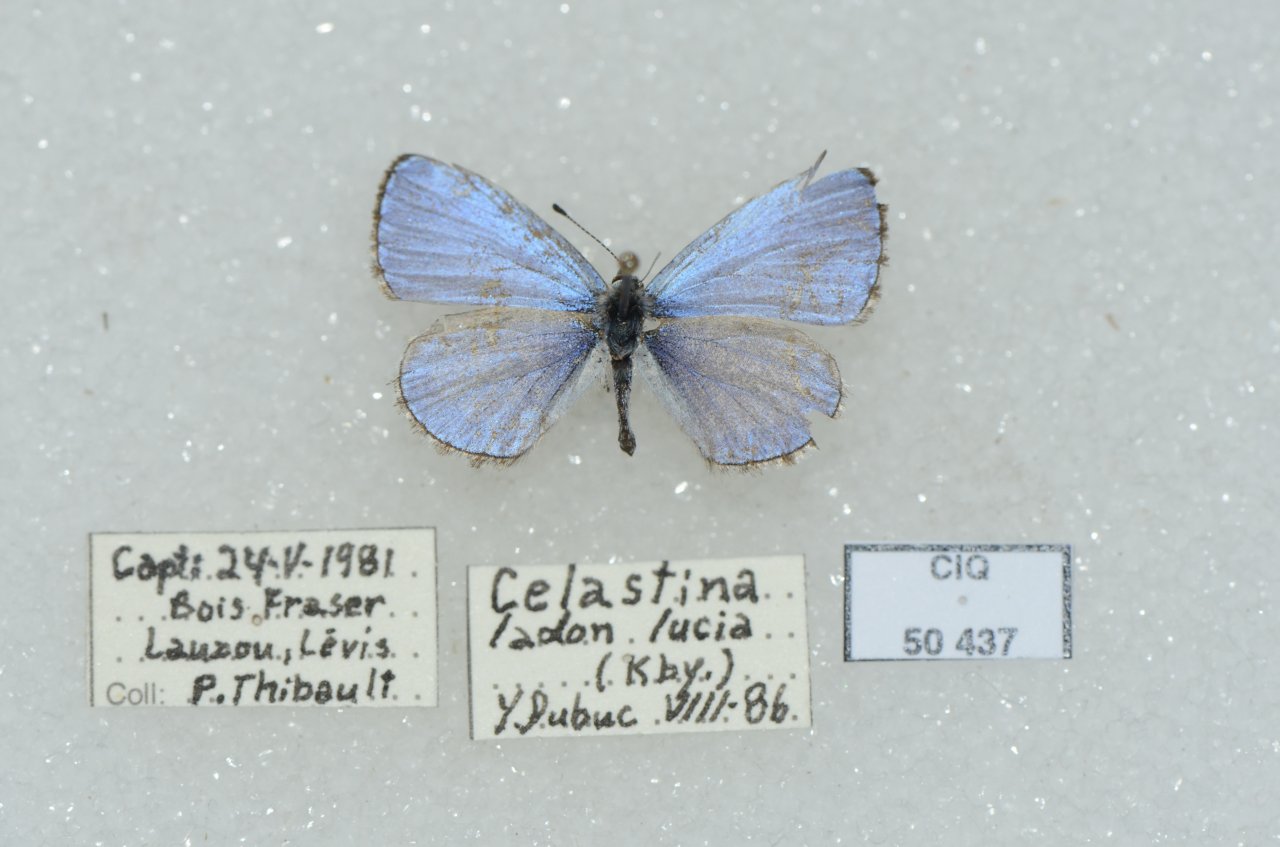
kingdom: Animalia
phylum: Arthropoda
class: Insecta
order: Lepidoptera
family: Lycaenidae
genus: Celastrina
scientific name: Celastrina lucia
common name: Northern Spring Azure
